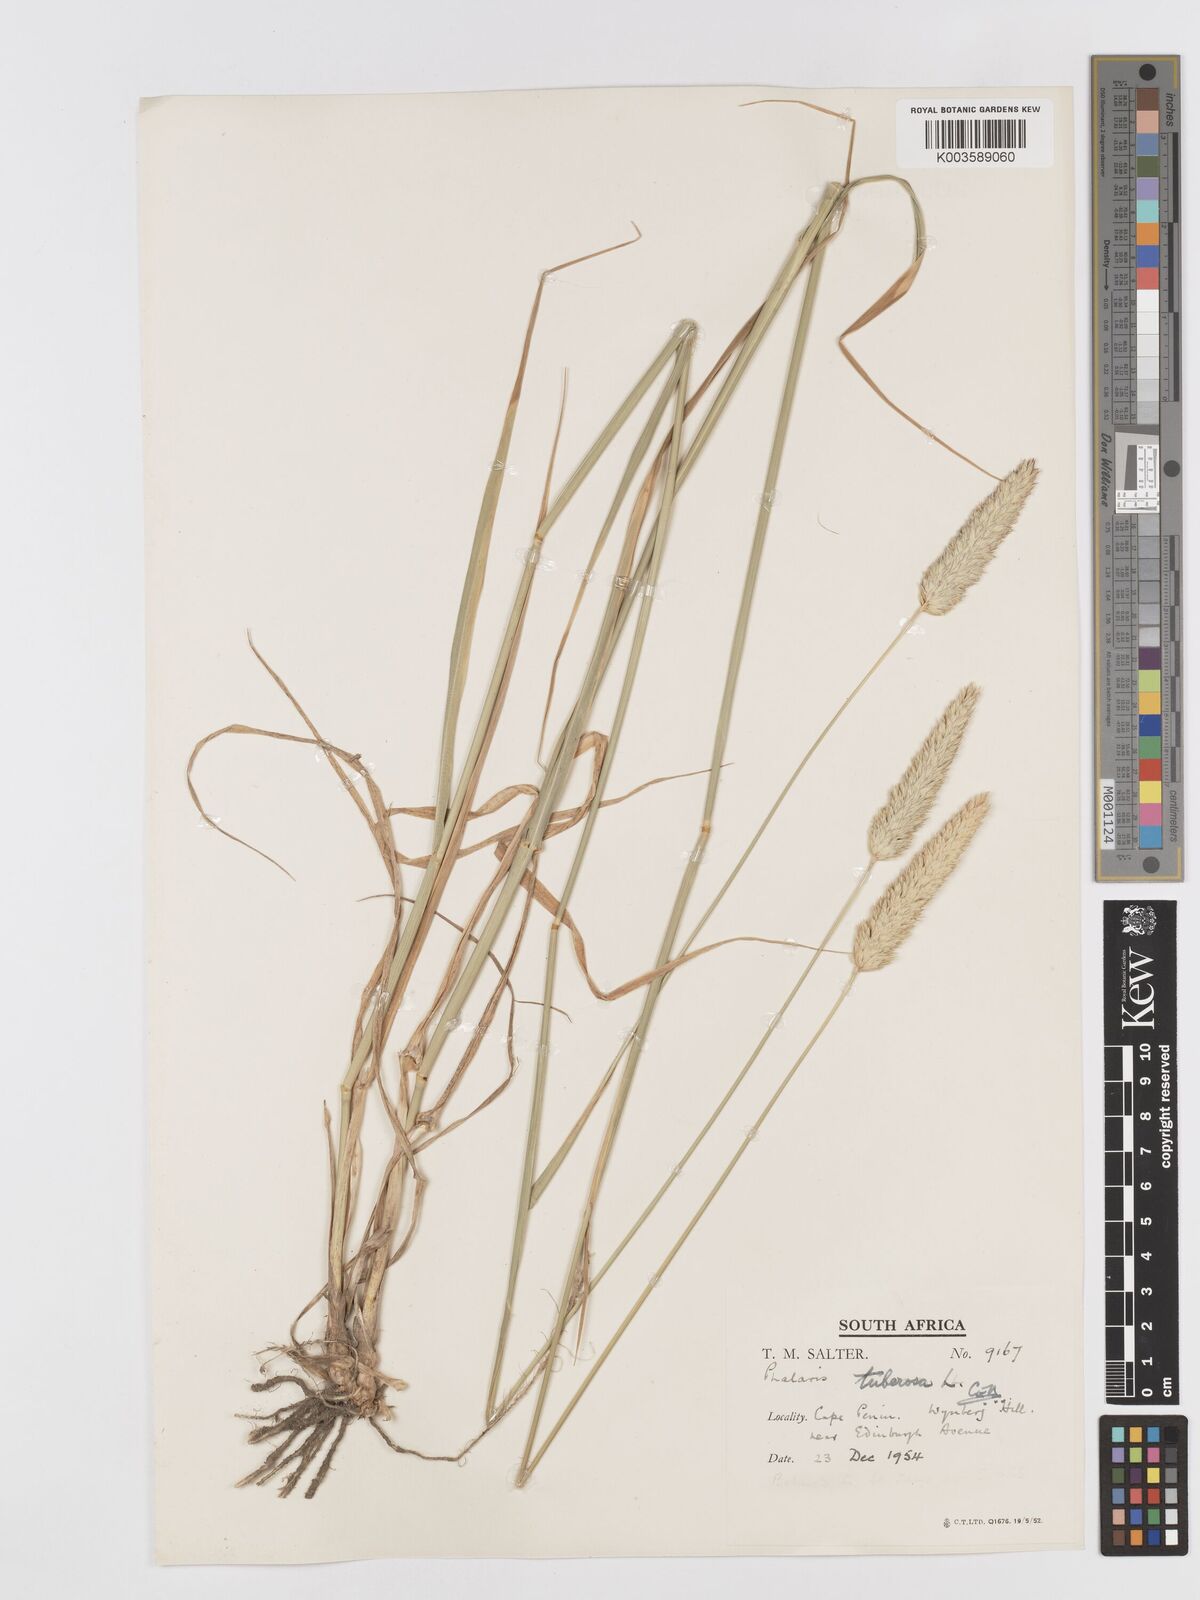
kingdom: Plantae
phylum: Tracheophyta
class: Liliopsida
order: Poales
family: Poaceae
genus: Phalaris
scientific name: Phalaris aquatica
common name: Bulbous canary-grass
